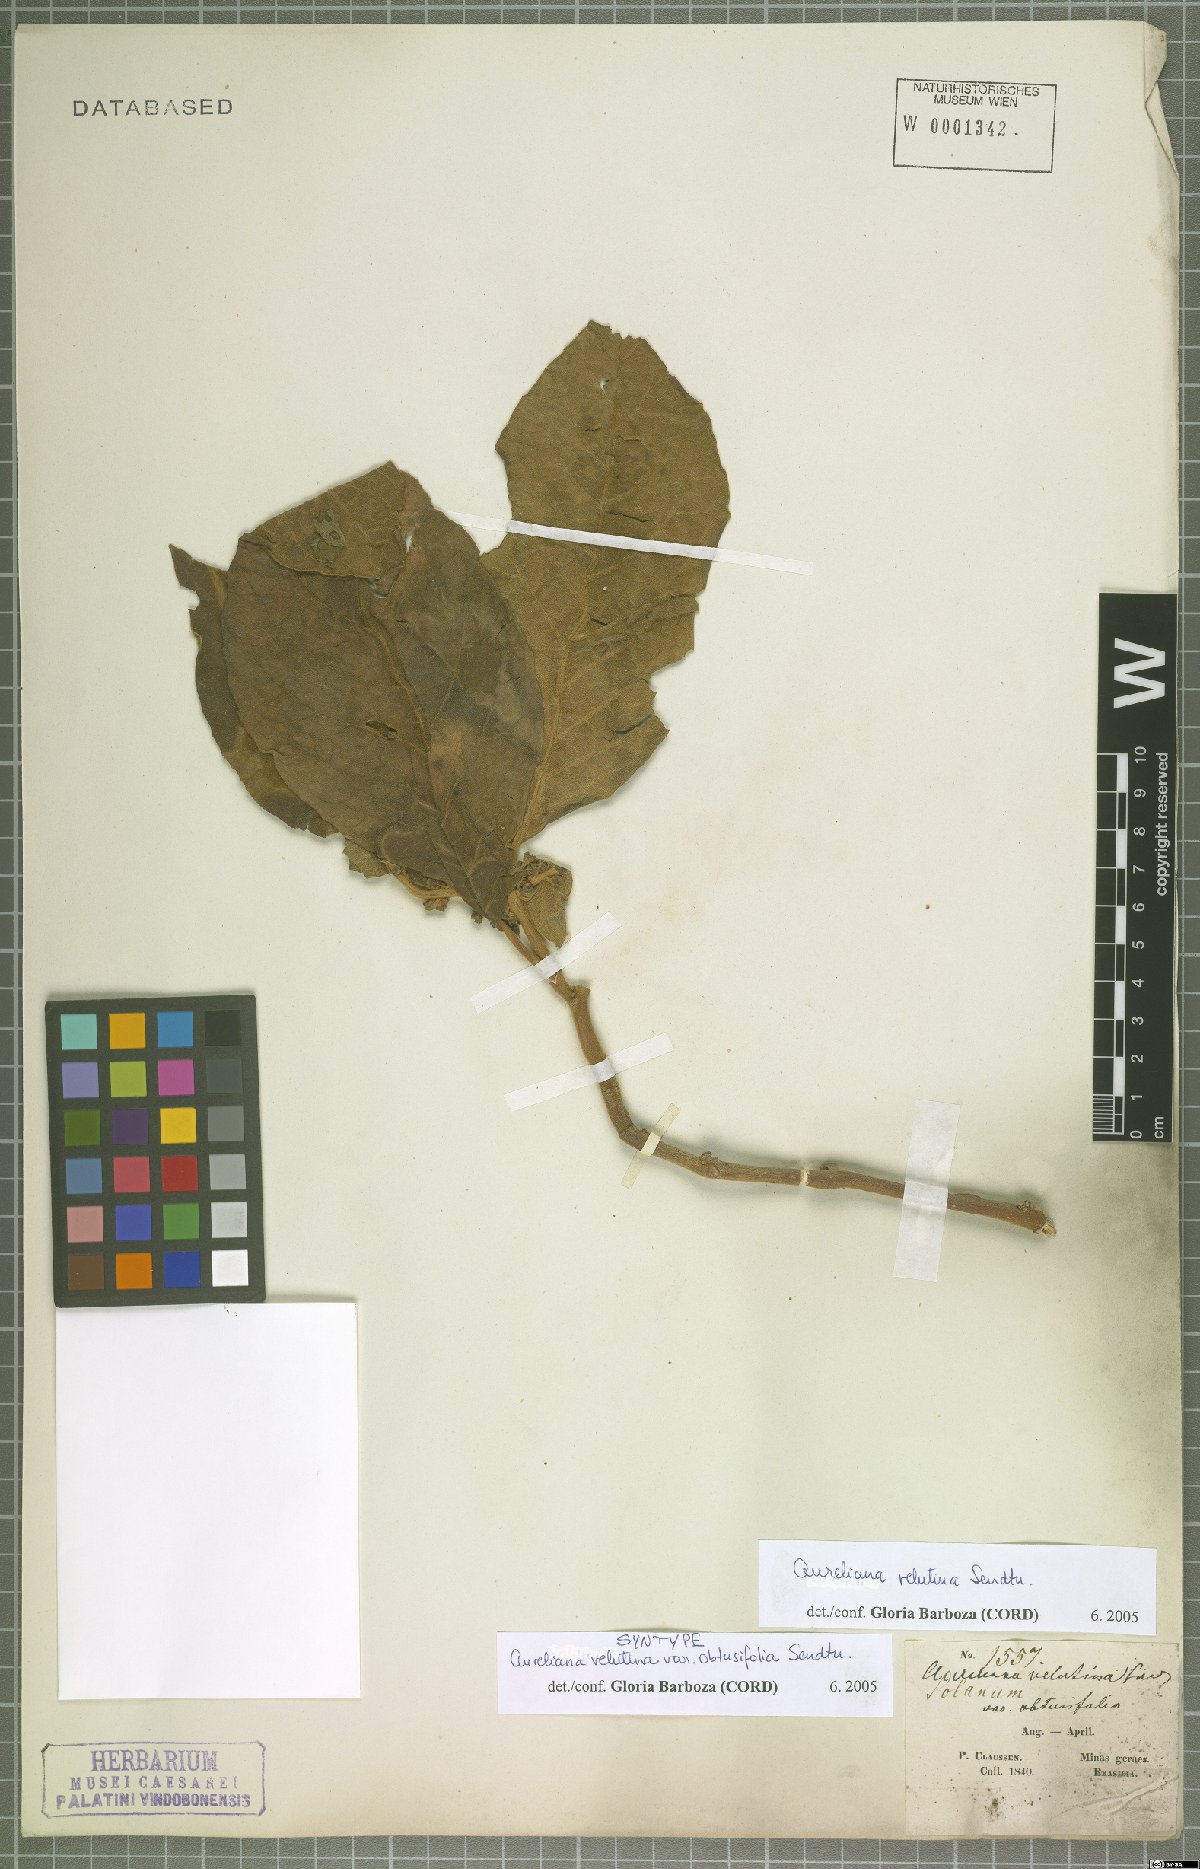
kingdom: Plantae
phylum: Tracheophyta
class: Magnoliopsida
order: Solanales
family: Solanaceae
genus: Athenaea
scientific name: Athenaea velutina
